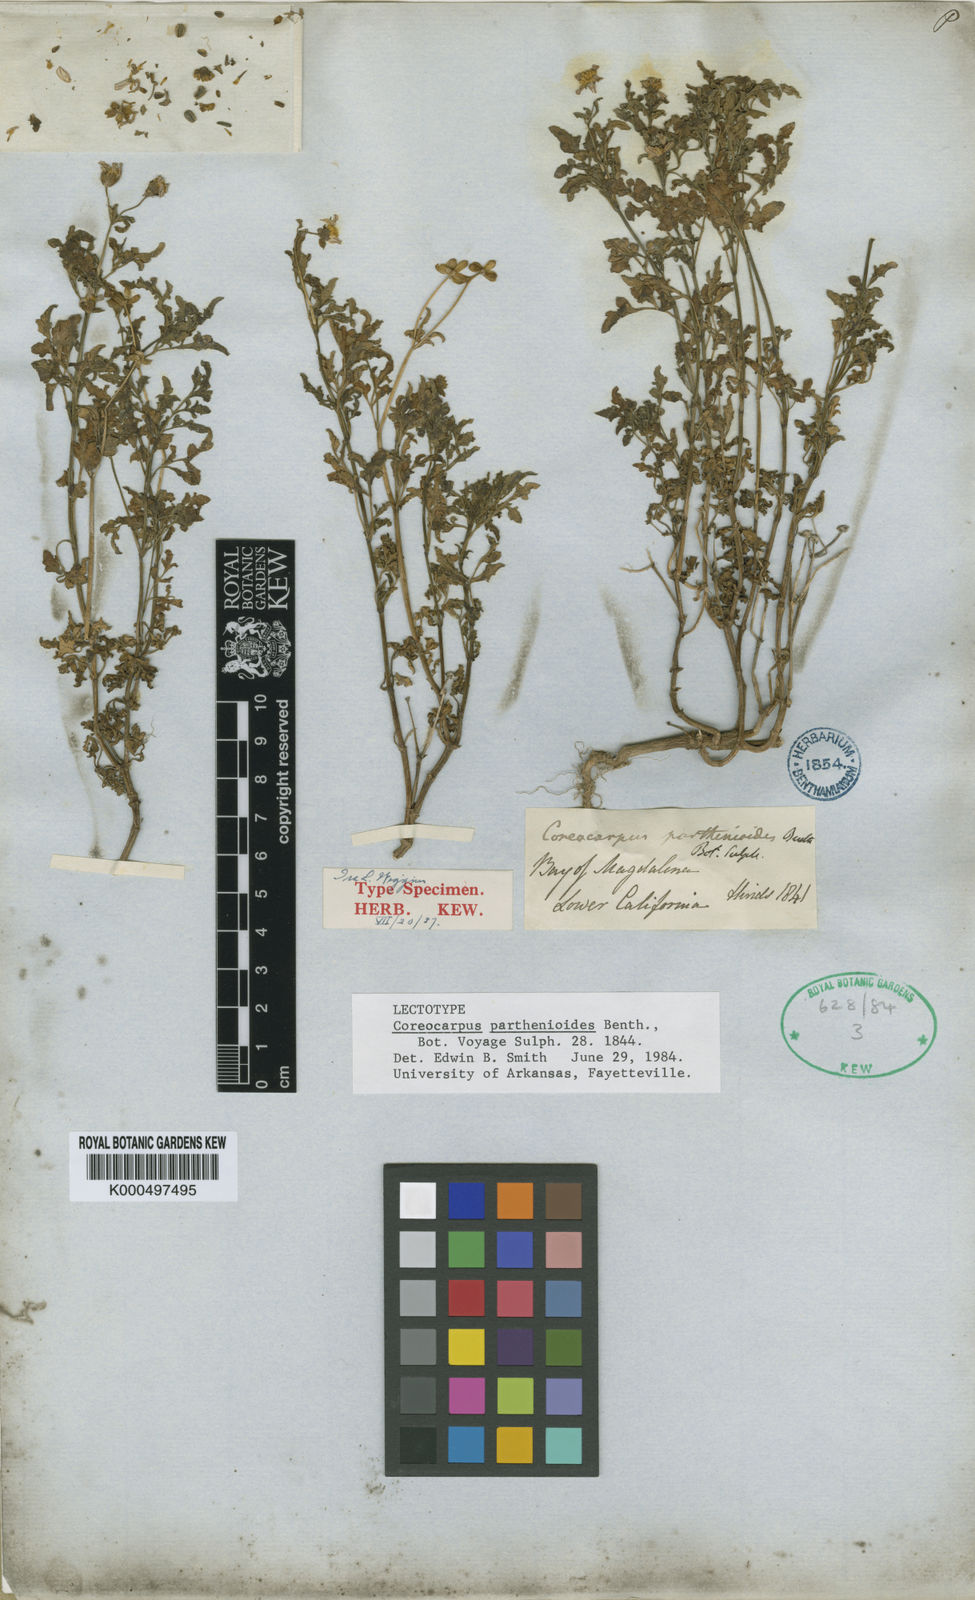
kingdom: Plantae
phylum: Tracheophyta
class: Magnoliopsida
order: Asterales
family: Asteraceae
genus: Coreocarpus
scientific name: Coreocarpus parthenioides
